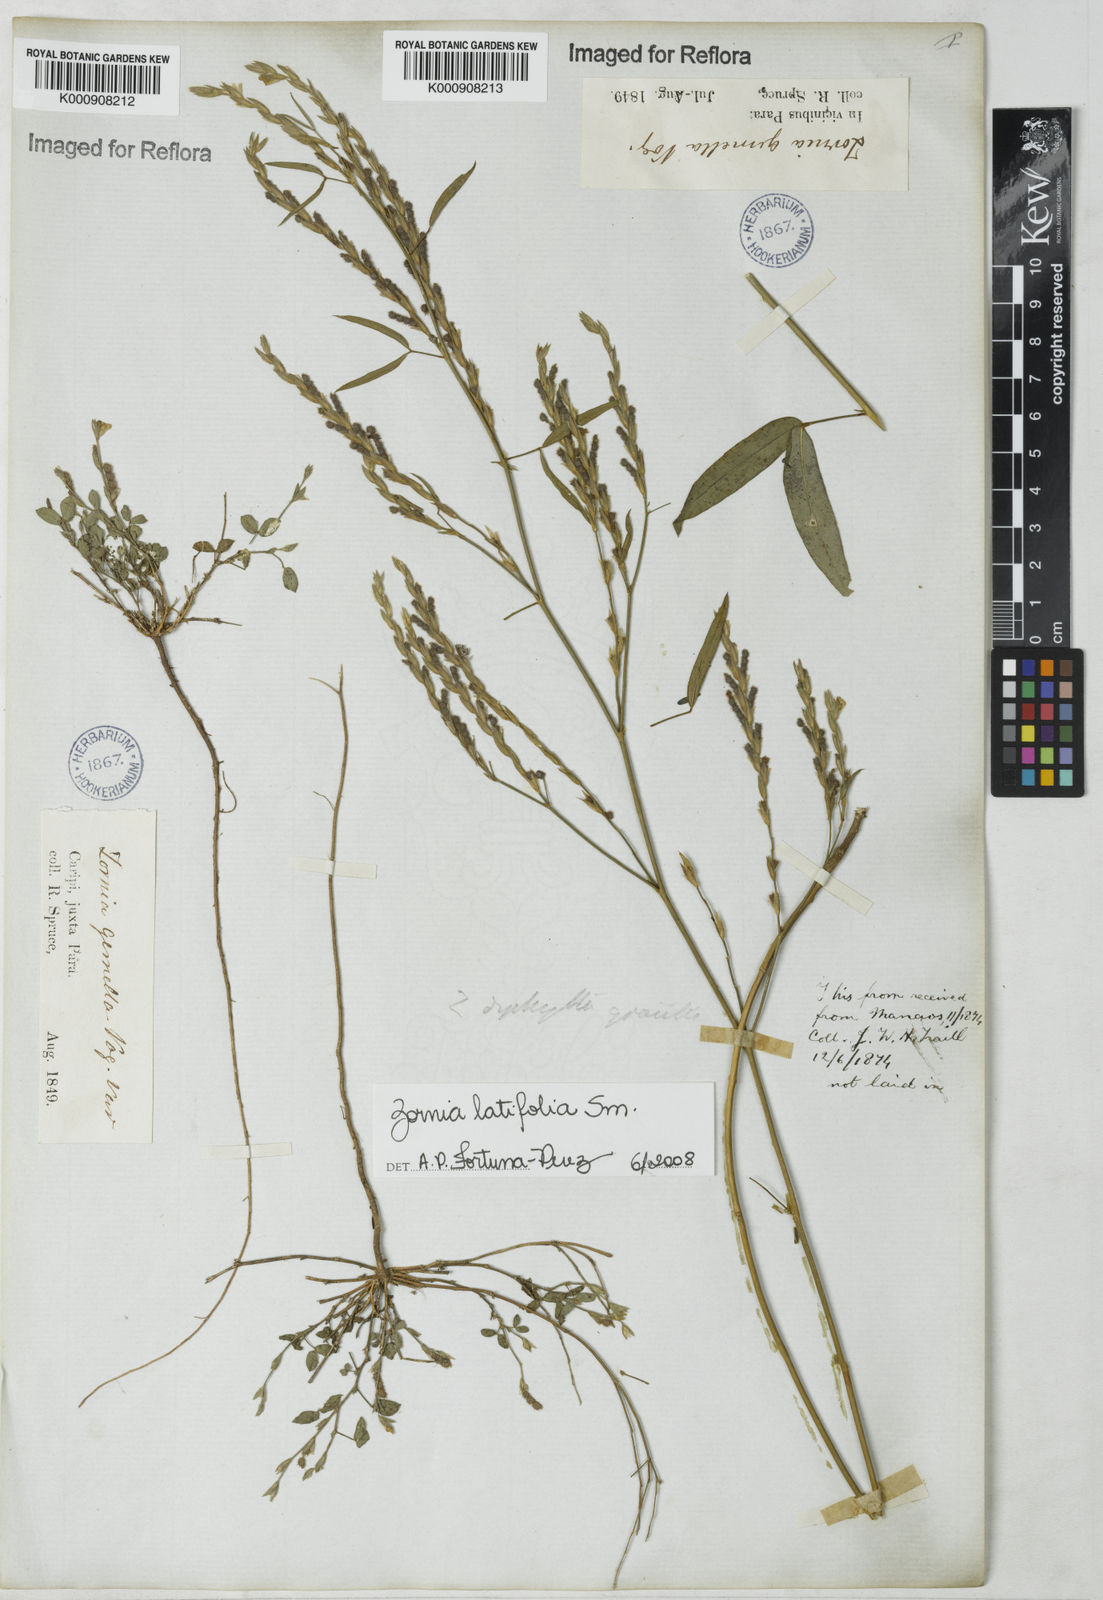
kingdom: Plantae
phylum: Tracheophyta
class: Magnoliopsida
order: Fabales
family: Fabaceae
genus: Zornia
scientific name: Zornia latifolia
